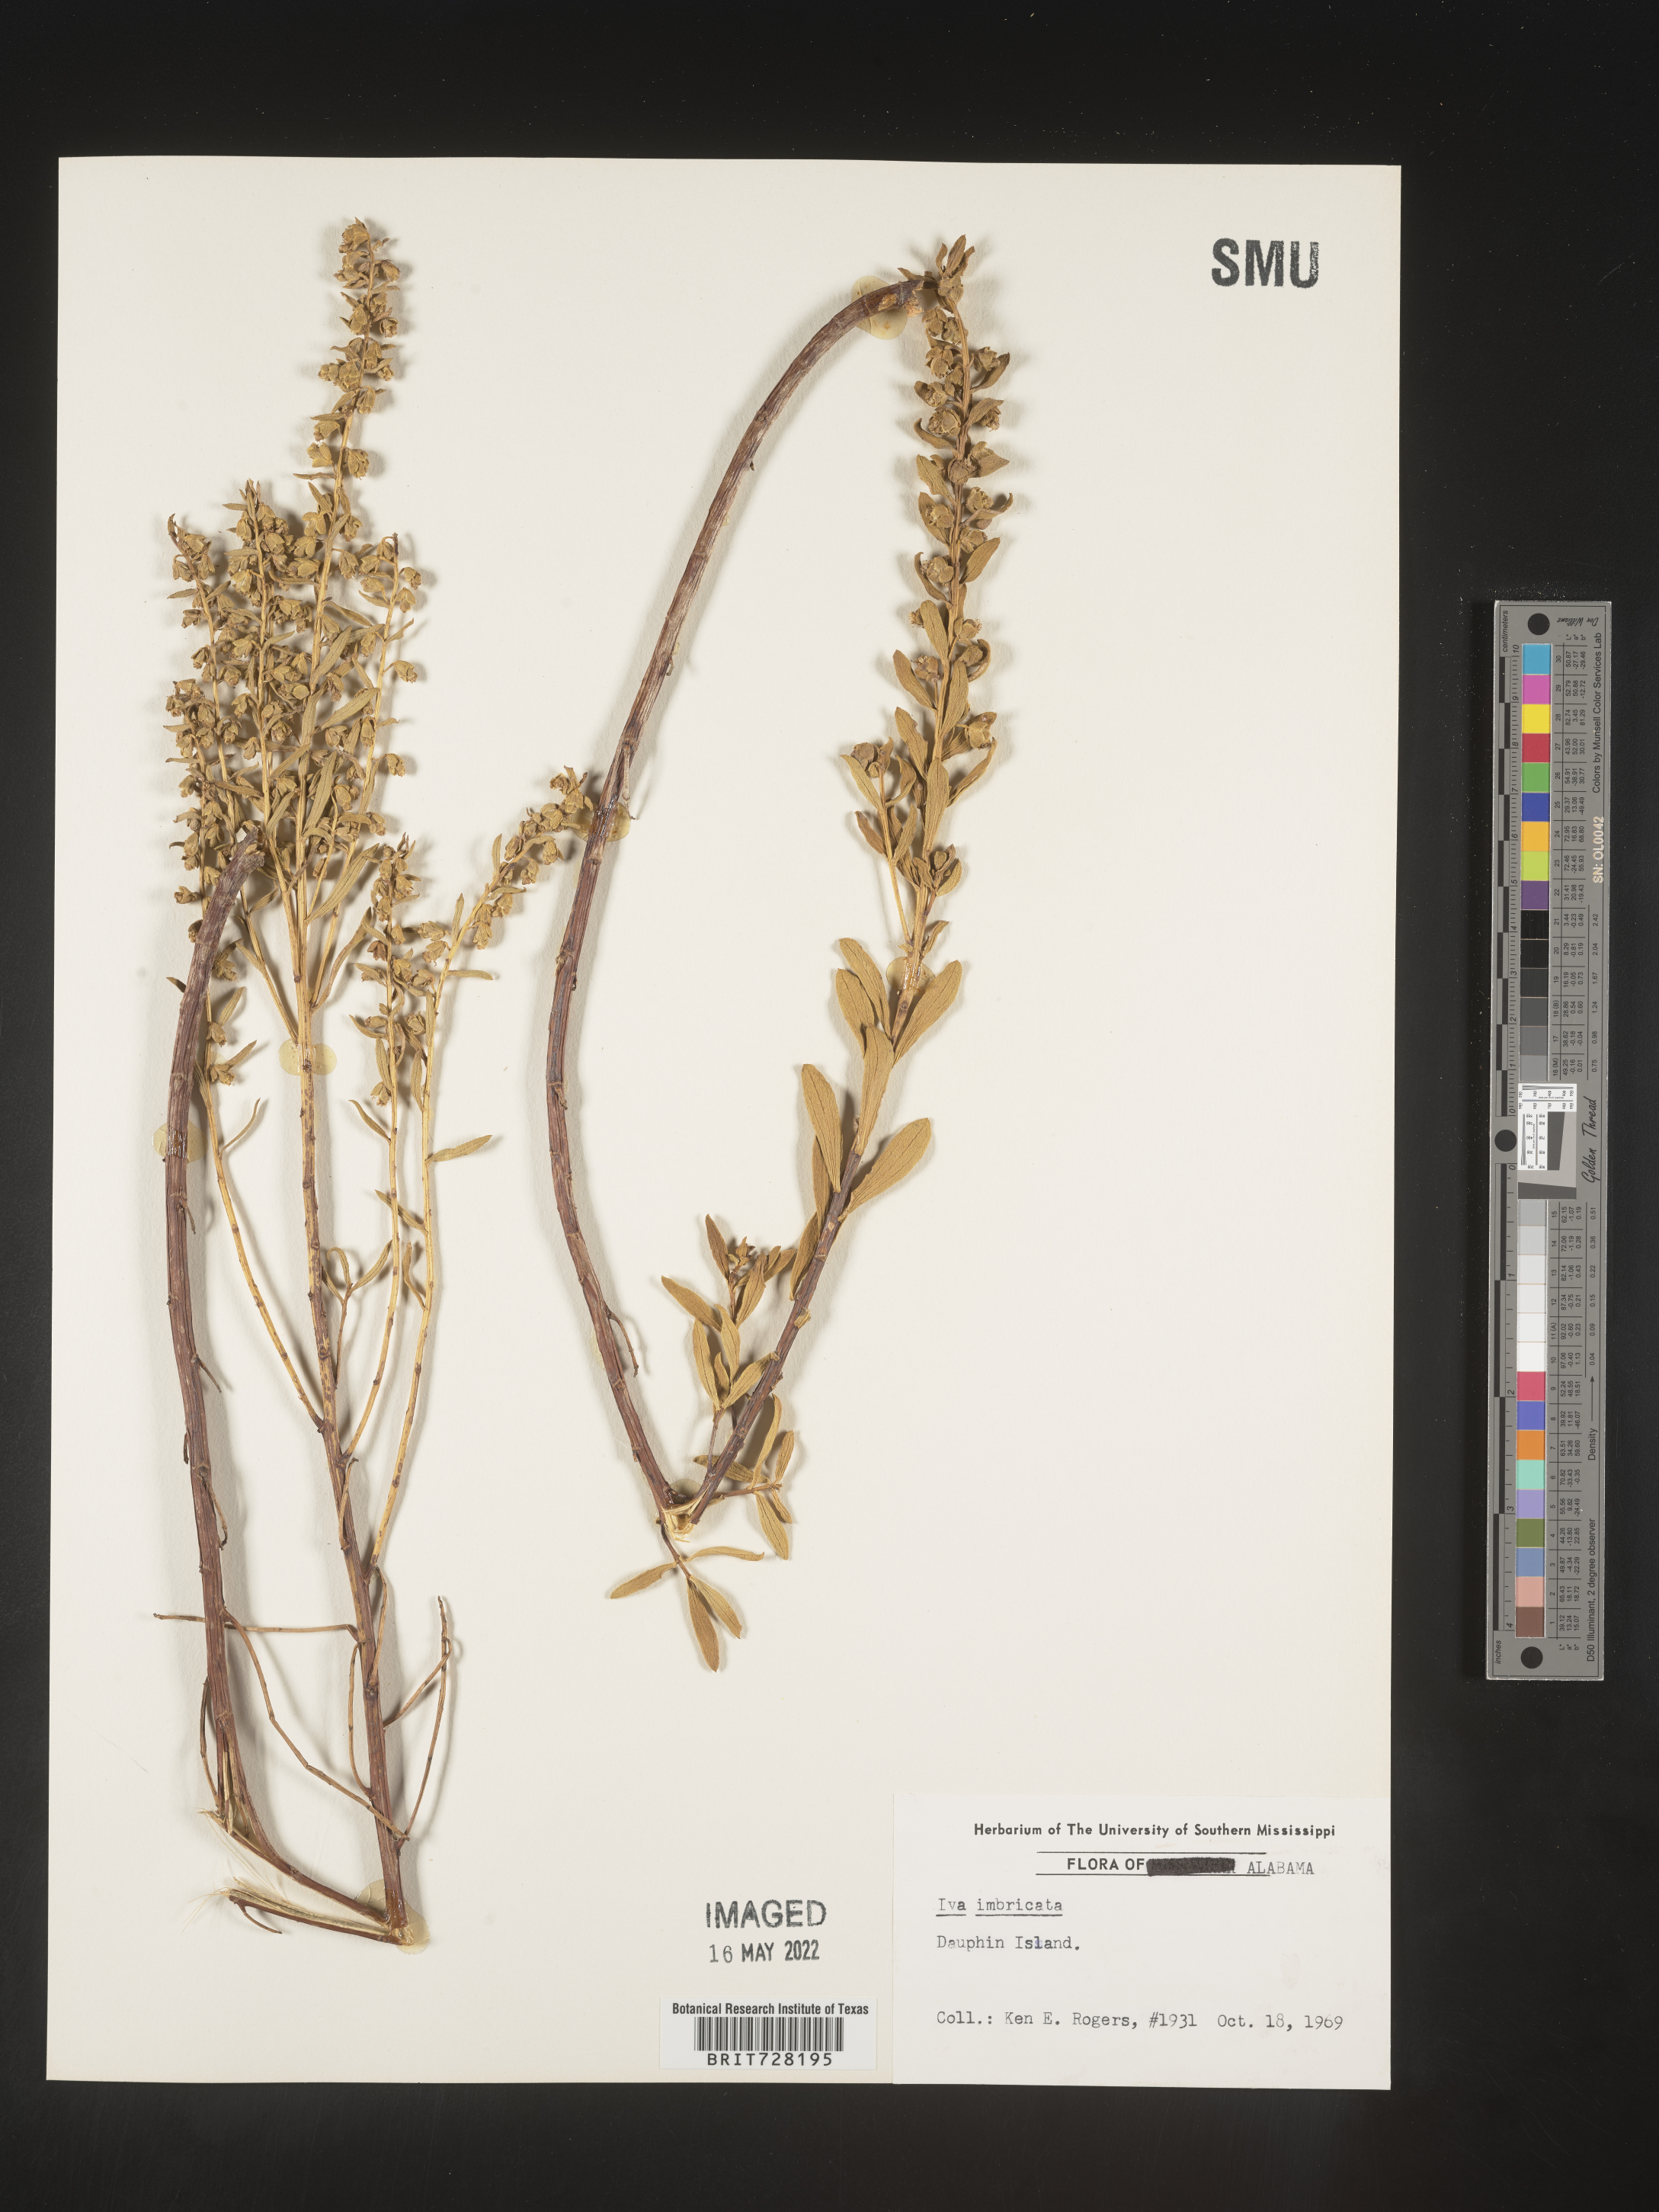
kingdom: Plantae
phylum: Tracheophyta
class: Magnoliopsida
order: Asterales
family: Asteraceae
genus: Iva
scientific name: Iva imbricata
